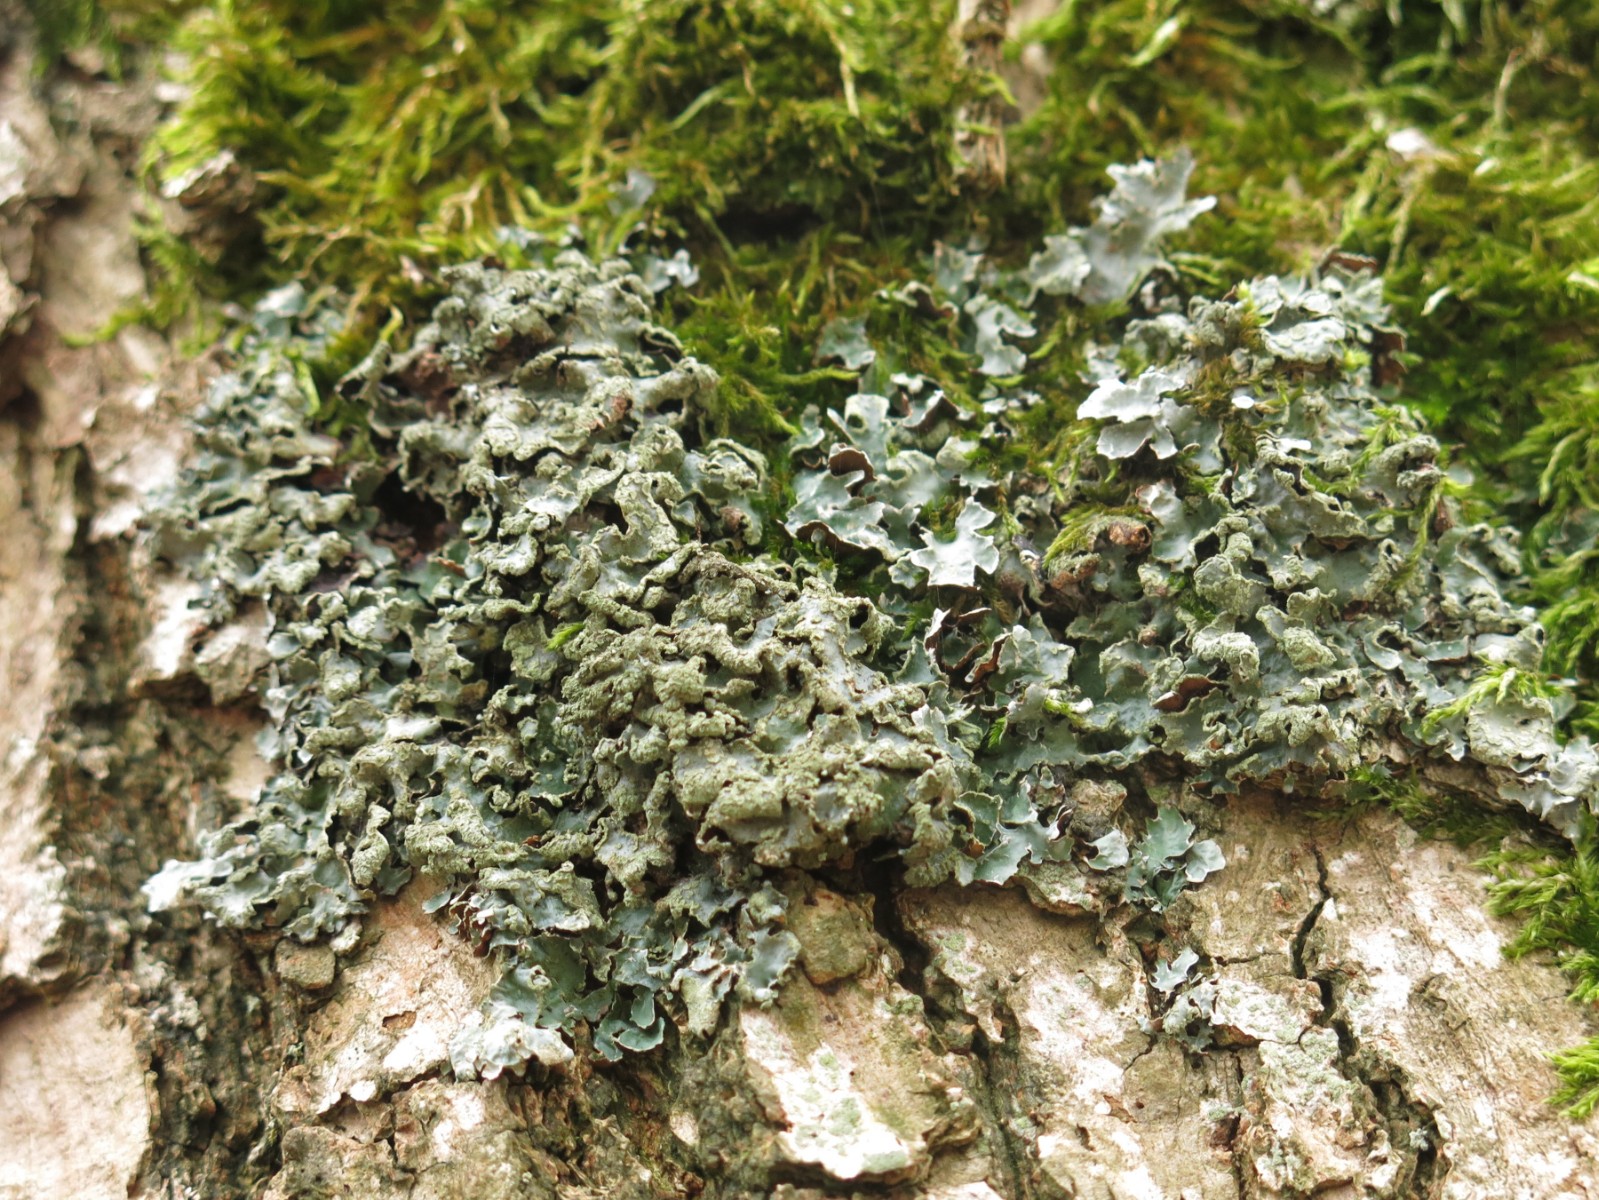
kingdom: Fungi
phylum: Ascomycota
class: Lecanoromycetes
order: Lecanorales
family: Parmeliaceae
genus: Parmelia
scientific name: Parmelia sulcata
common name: rynket skållav
